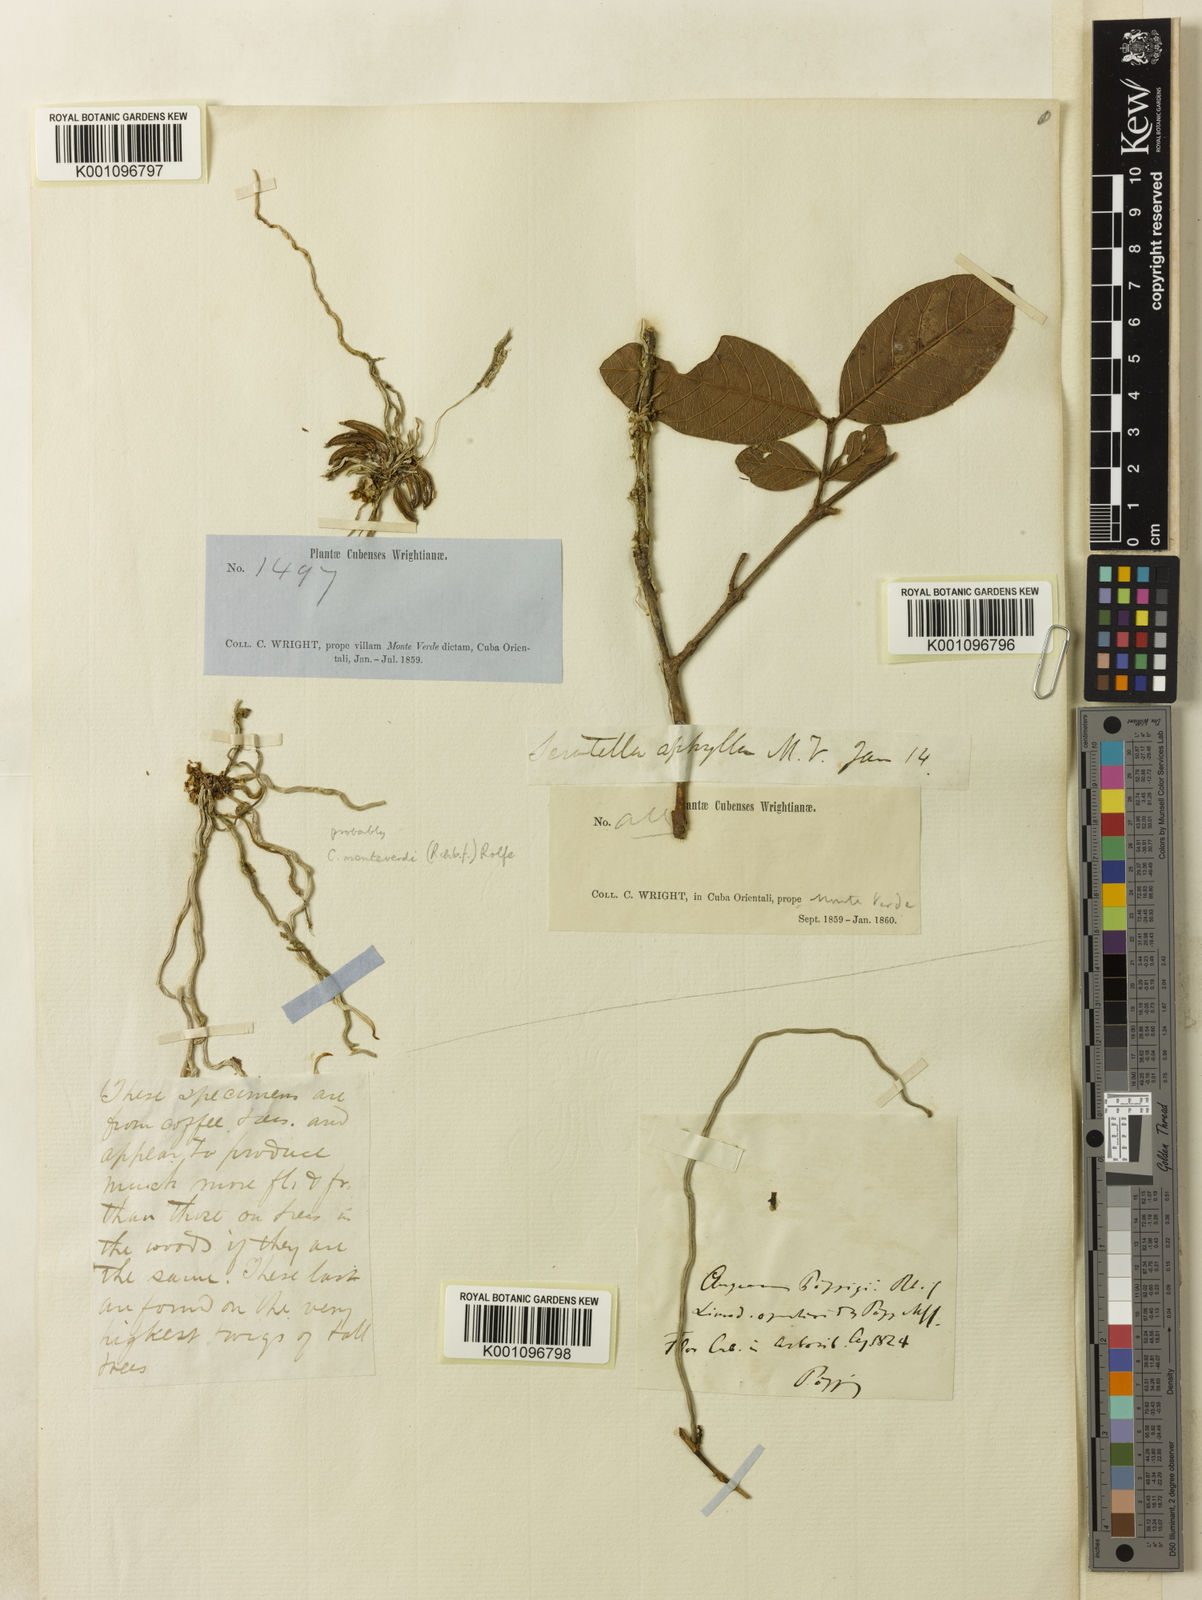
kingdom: Plantae
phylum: Tracheophyta
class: Liliopsida
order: Asparagales
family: Orchidaceae
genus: Dendrophylax
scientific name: Dendrophylax filiformis
